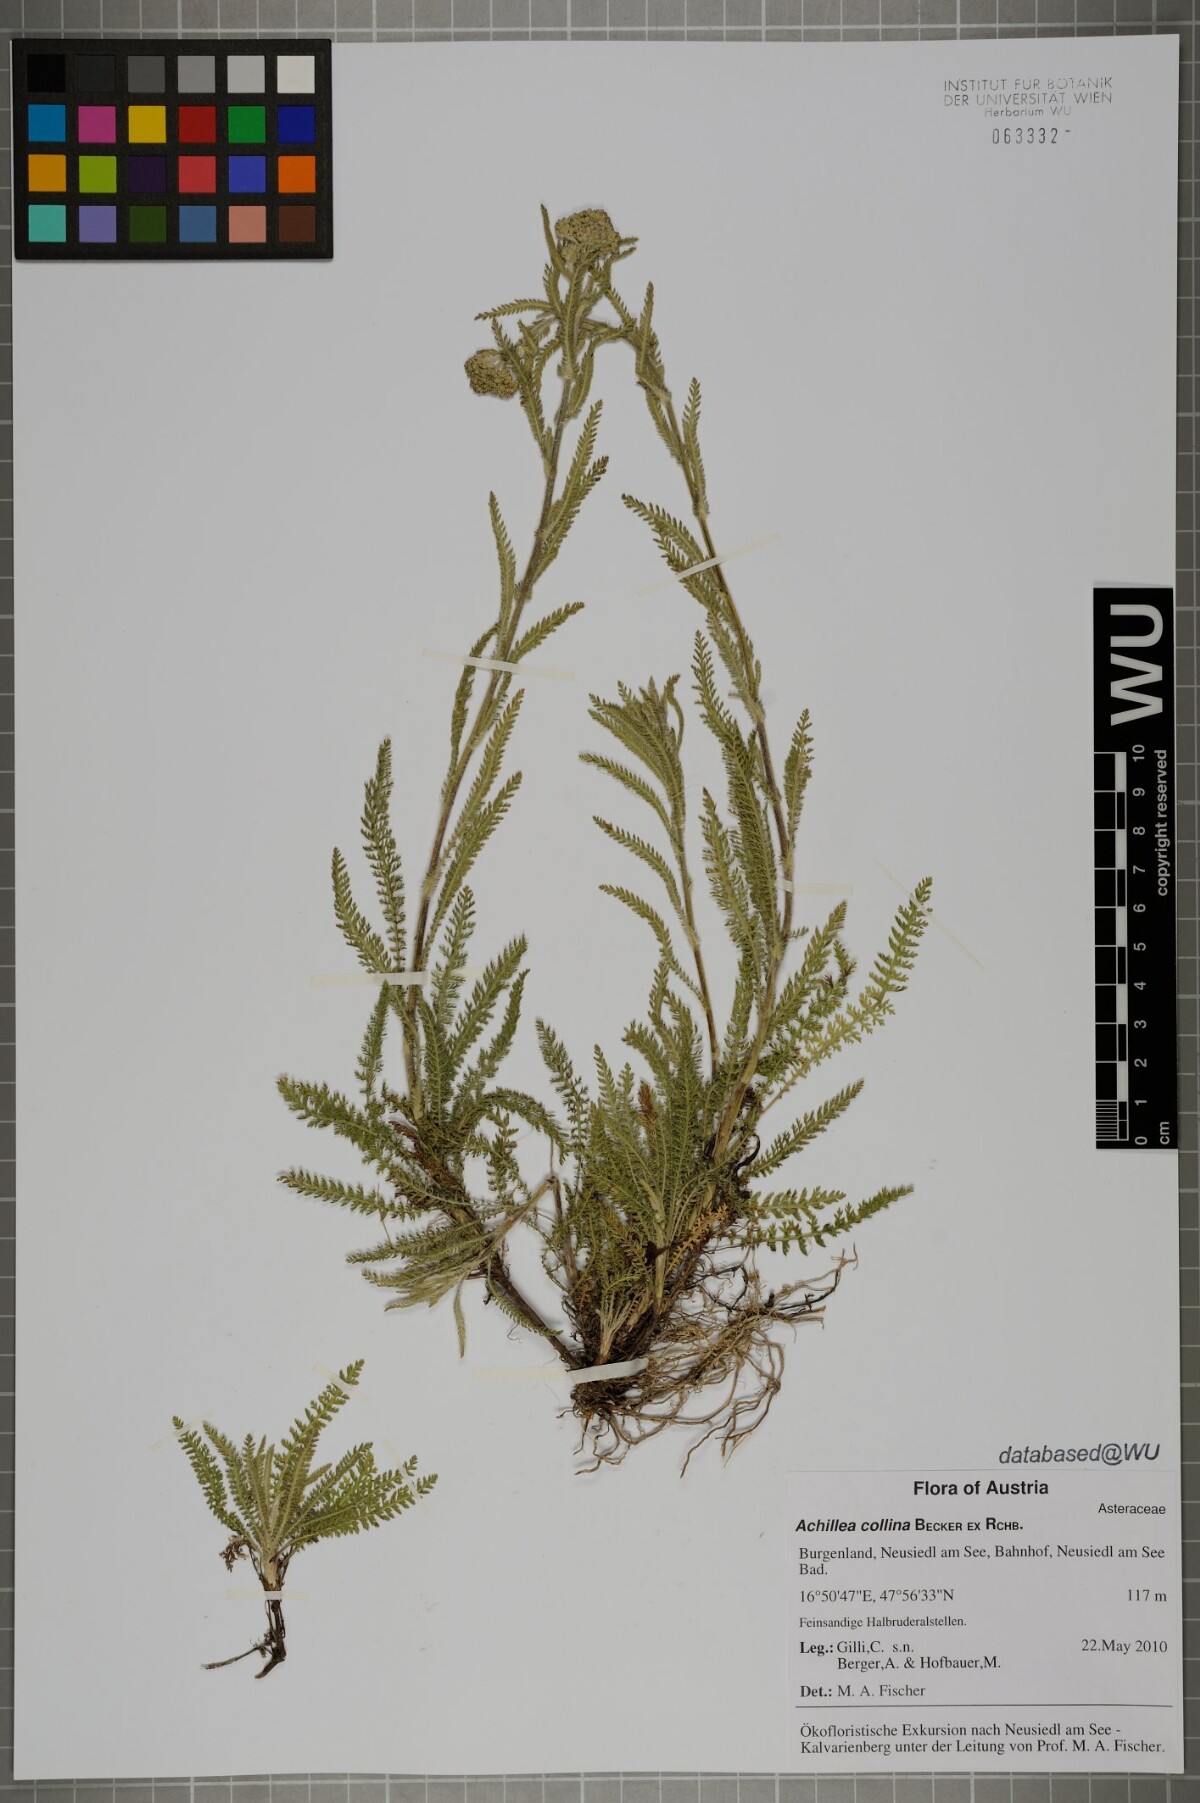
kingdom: Plantae
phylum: Tracheophyta
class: Magnoliopsida
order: Asterales
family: Asteraceae
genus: Achillea
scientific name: Achillea collina
